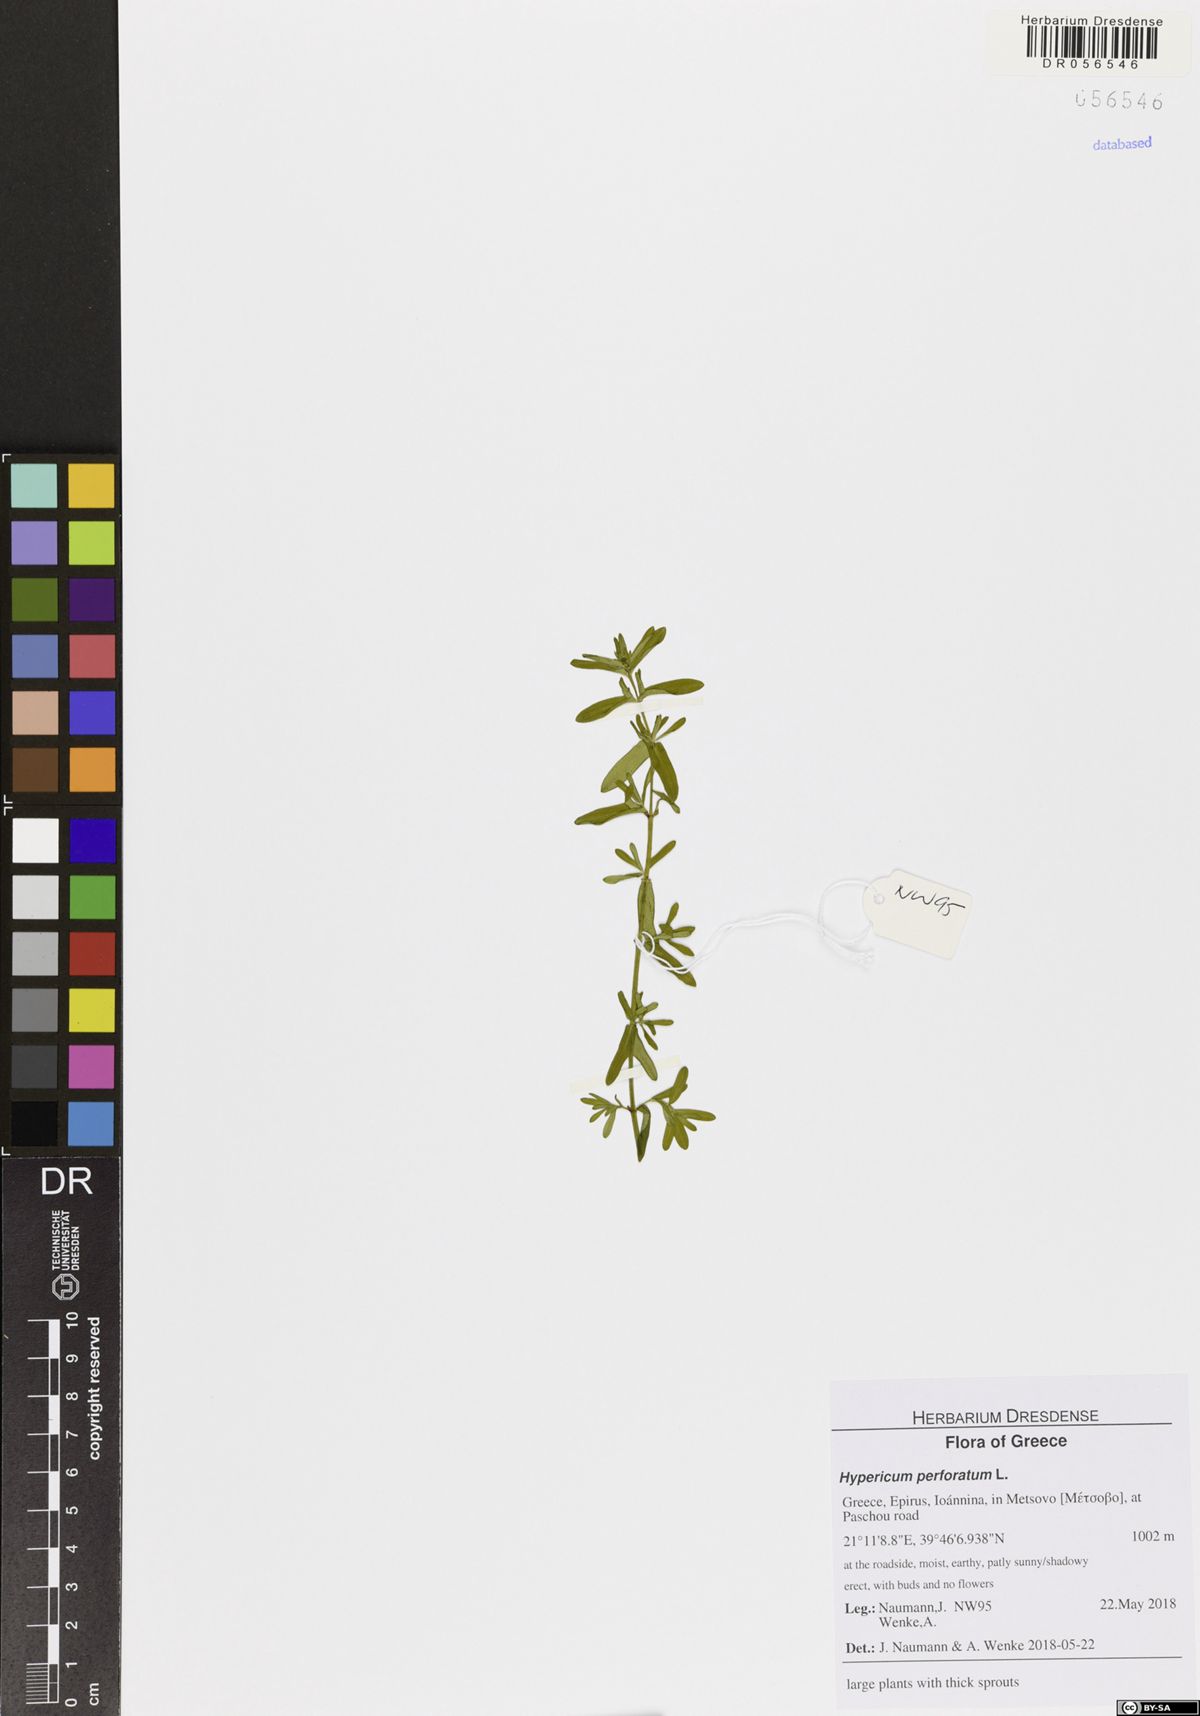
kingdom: Plantae
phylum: Tracheophyta
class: Magnoliopsida
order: Malpighiales
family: Hypericaceae
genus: Hypericum
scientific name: Hypericum perforatum
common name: Common st. johnswort
